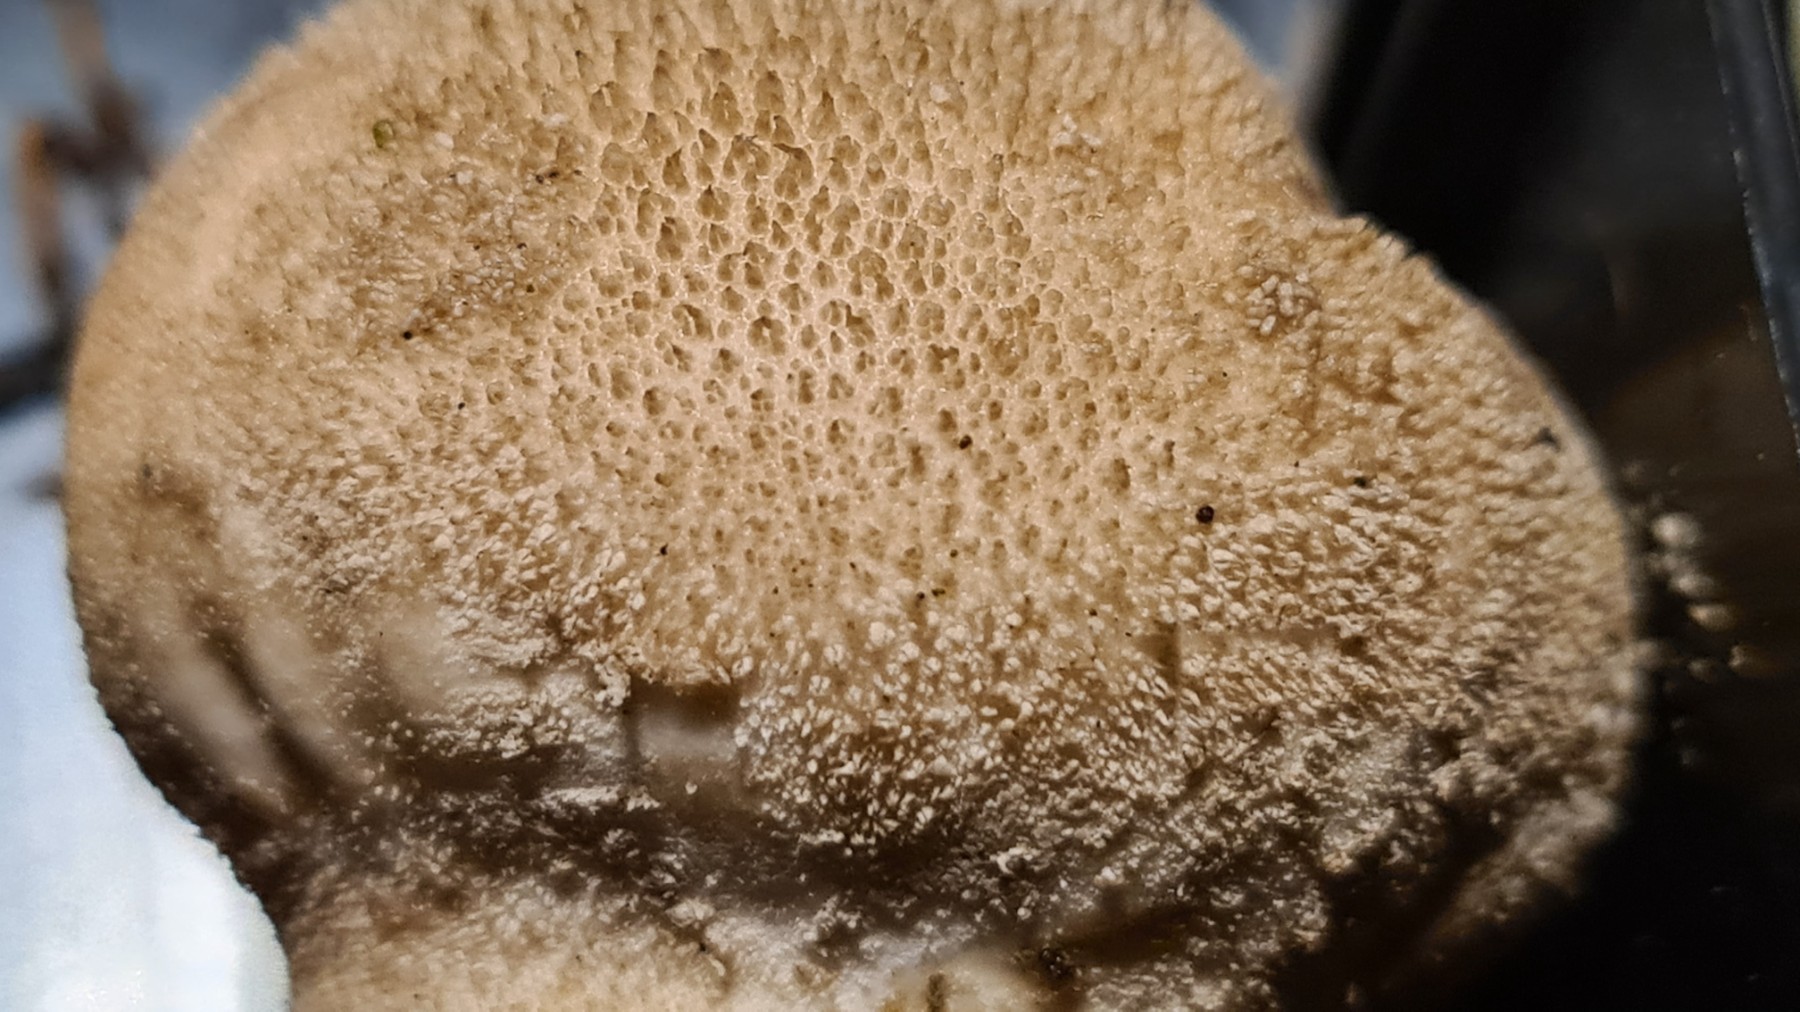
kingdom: Fungi
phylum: Basidiomycota
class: Agaricomycetes
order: Agaricales
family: Lycoperdaceae
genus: Lycoperdon
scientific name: Lycoperdon molle
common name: skov-støvbold
